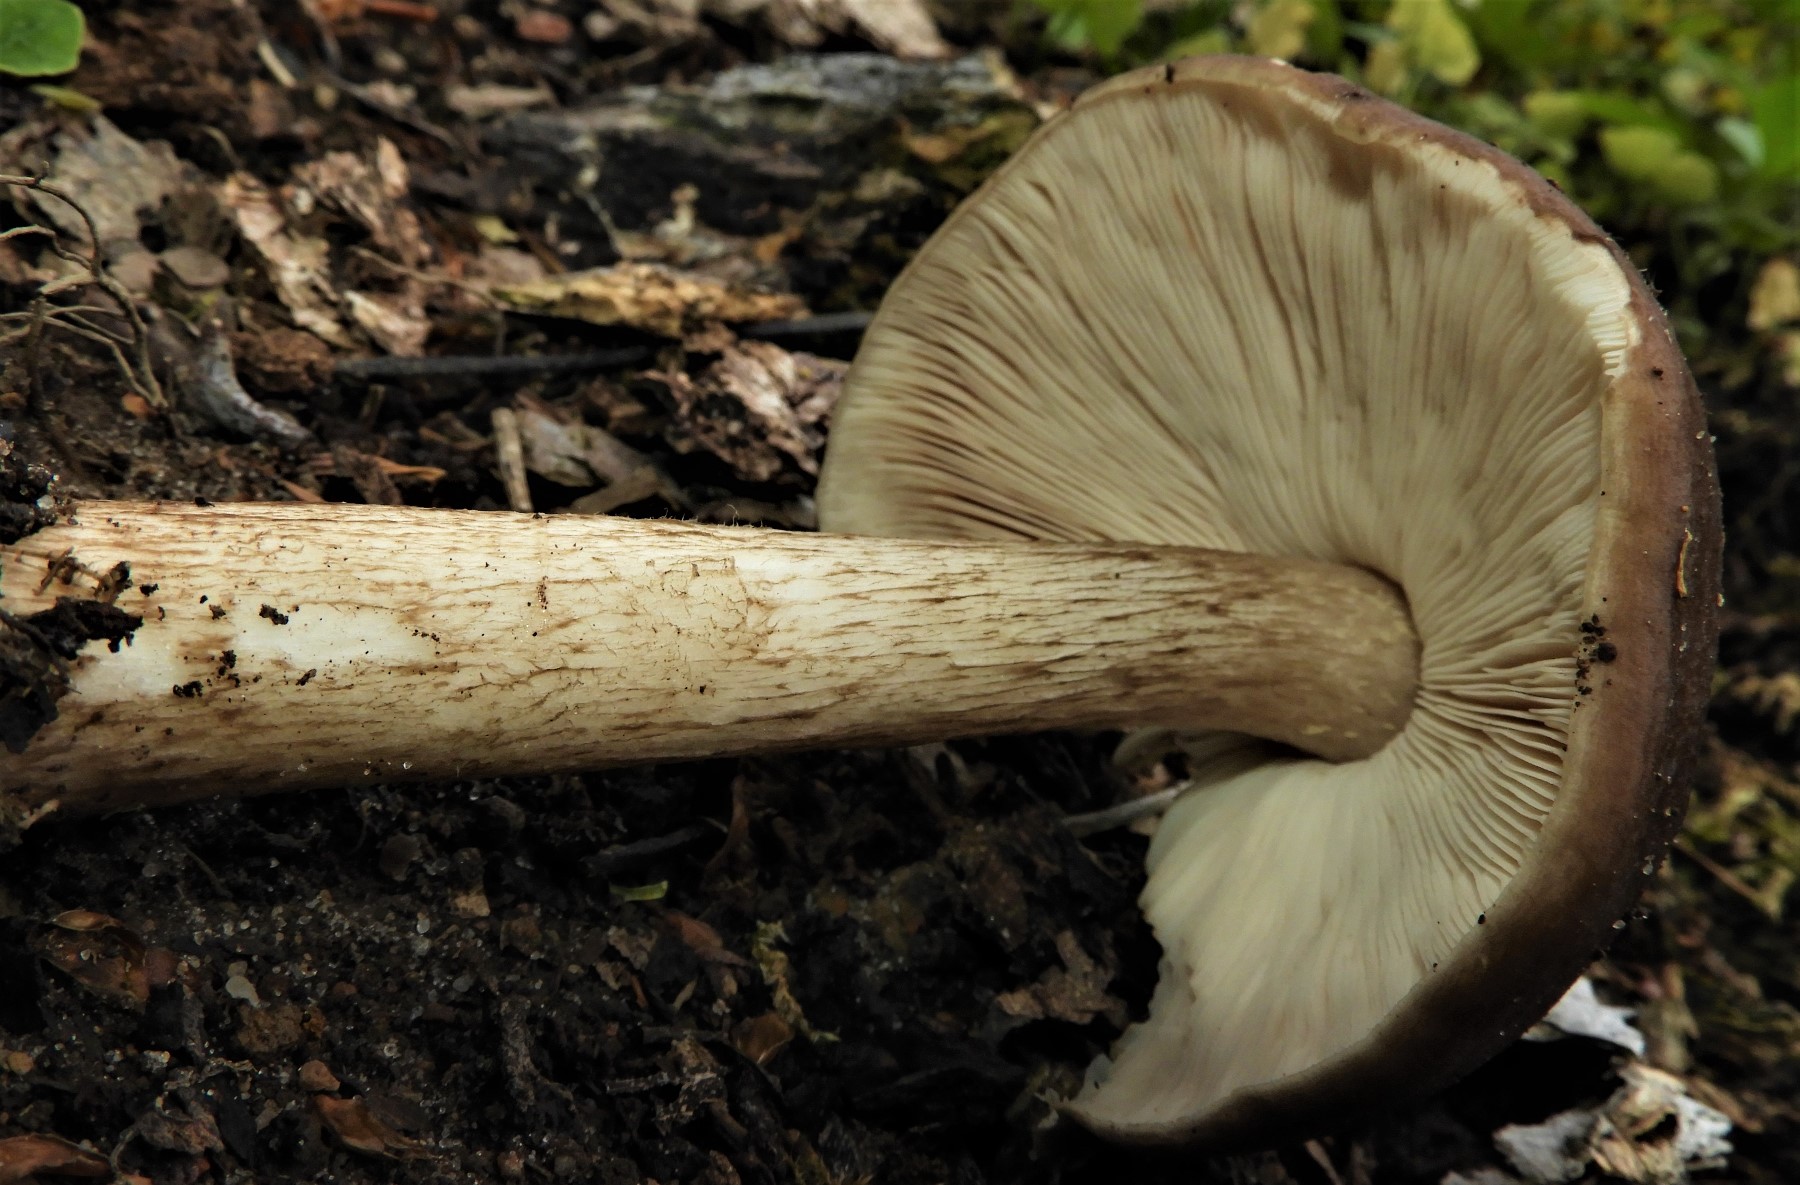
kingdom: Fungi
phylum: Basidiomycota
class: Agaricomycetes
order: Agaricales
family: Pluteaceae
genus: Pluteus
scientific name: Pluteus cervinus
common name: sodfarvet skærmhat
